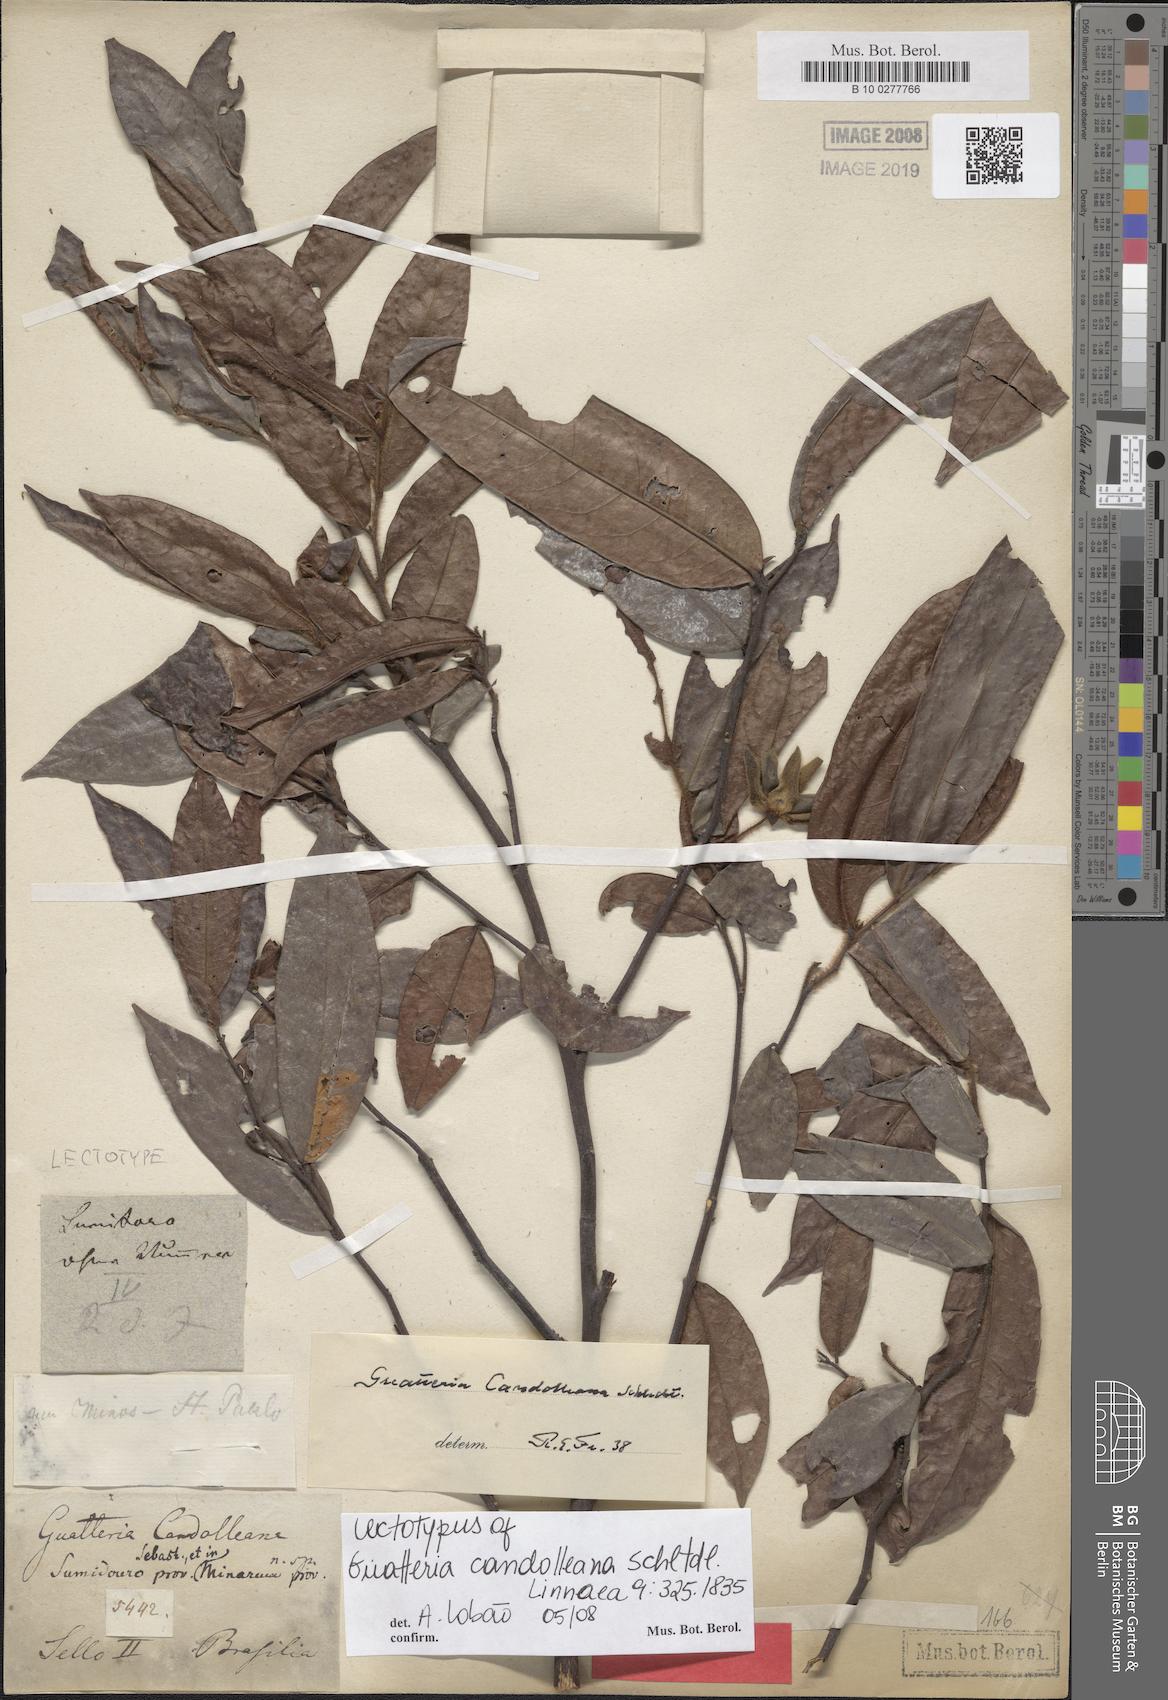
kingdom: Plantae
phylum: Tracheophyta
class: Magnoliopsida
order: Magnoliales
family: Annonaceae
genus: Guatteria
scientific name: Guatteria candolleana
